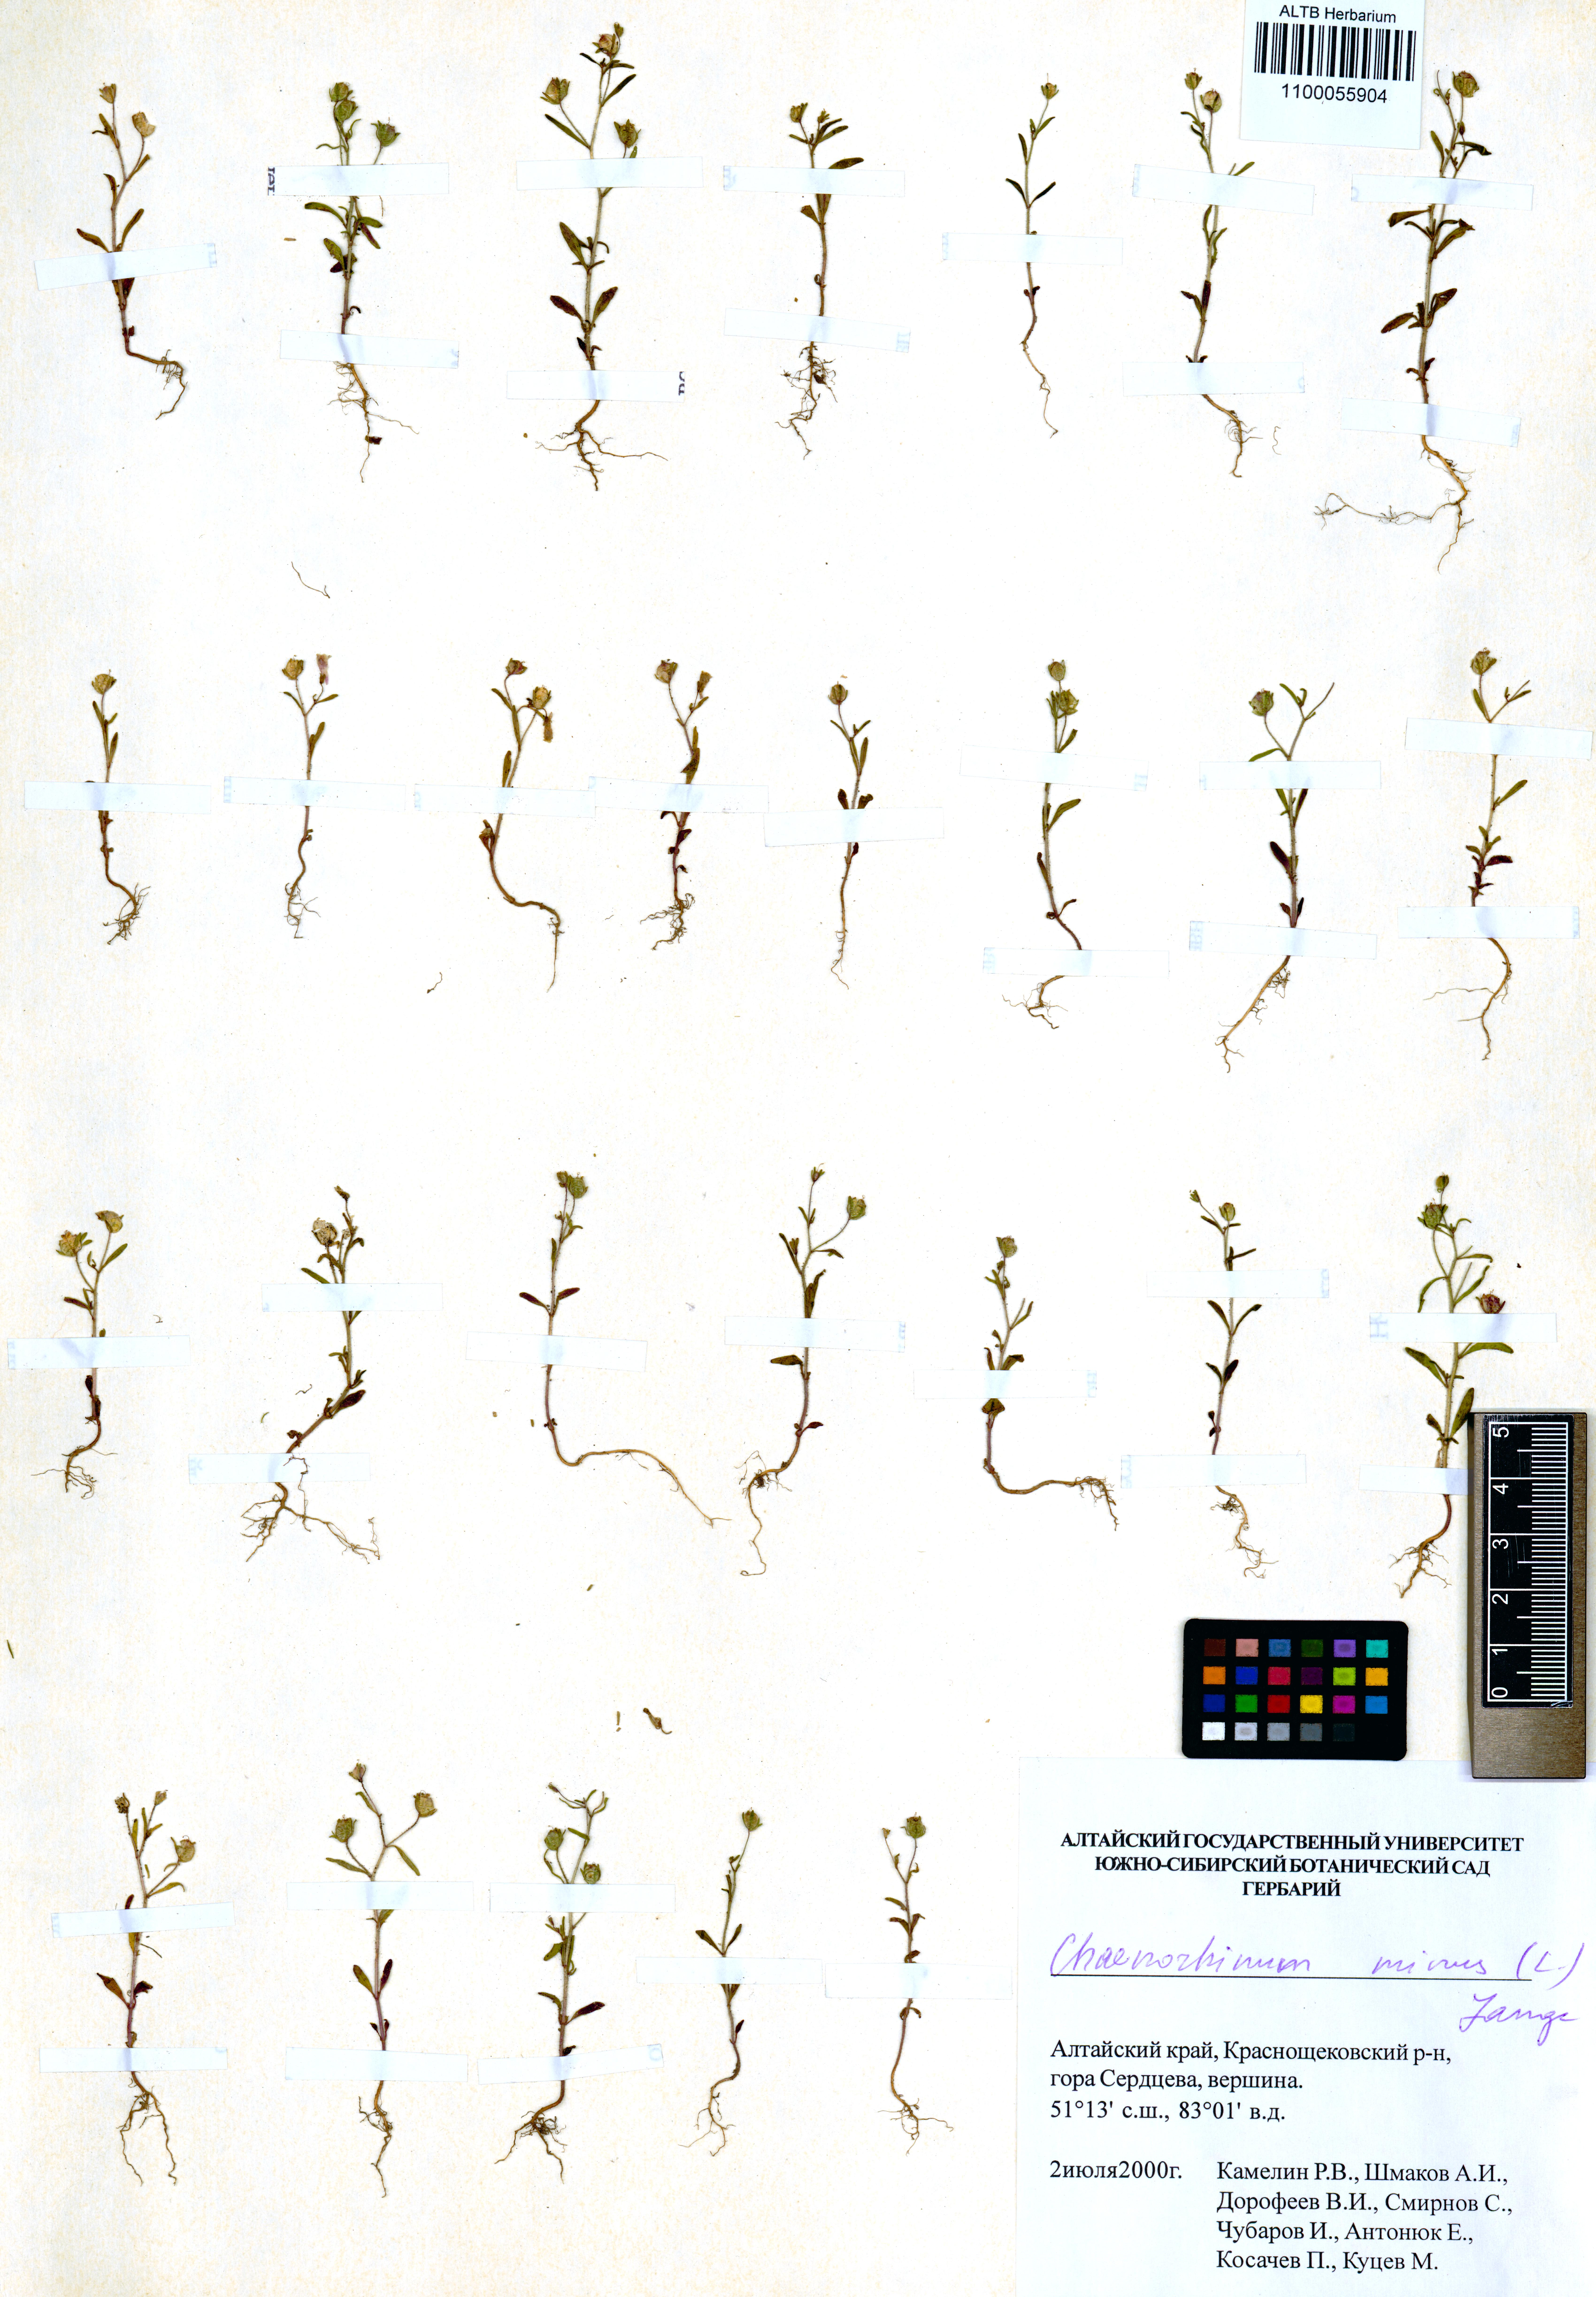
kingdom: Plantae
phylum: Tracheophyta
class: Magnoliopsida
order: Lamiales
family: Plantaginaceae
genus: Chaenorhinum
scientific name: Chaenorhinum minus
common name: Dwarf snapdragon
